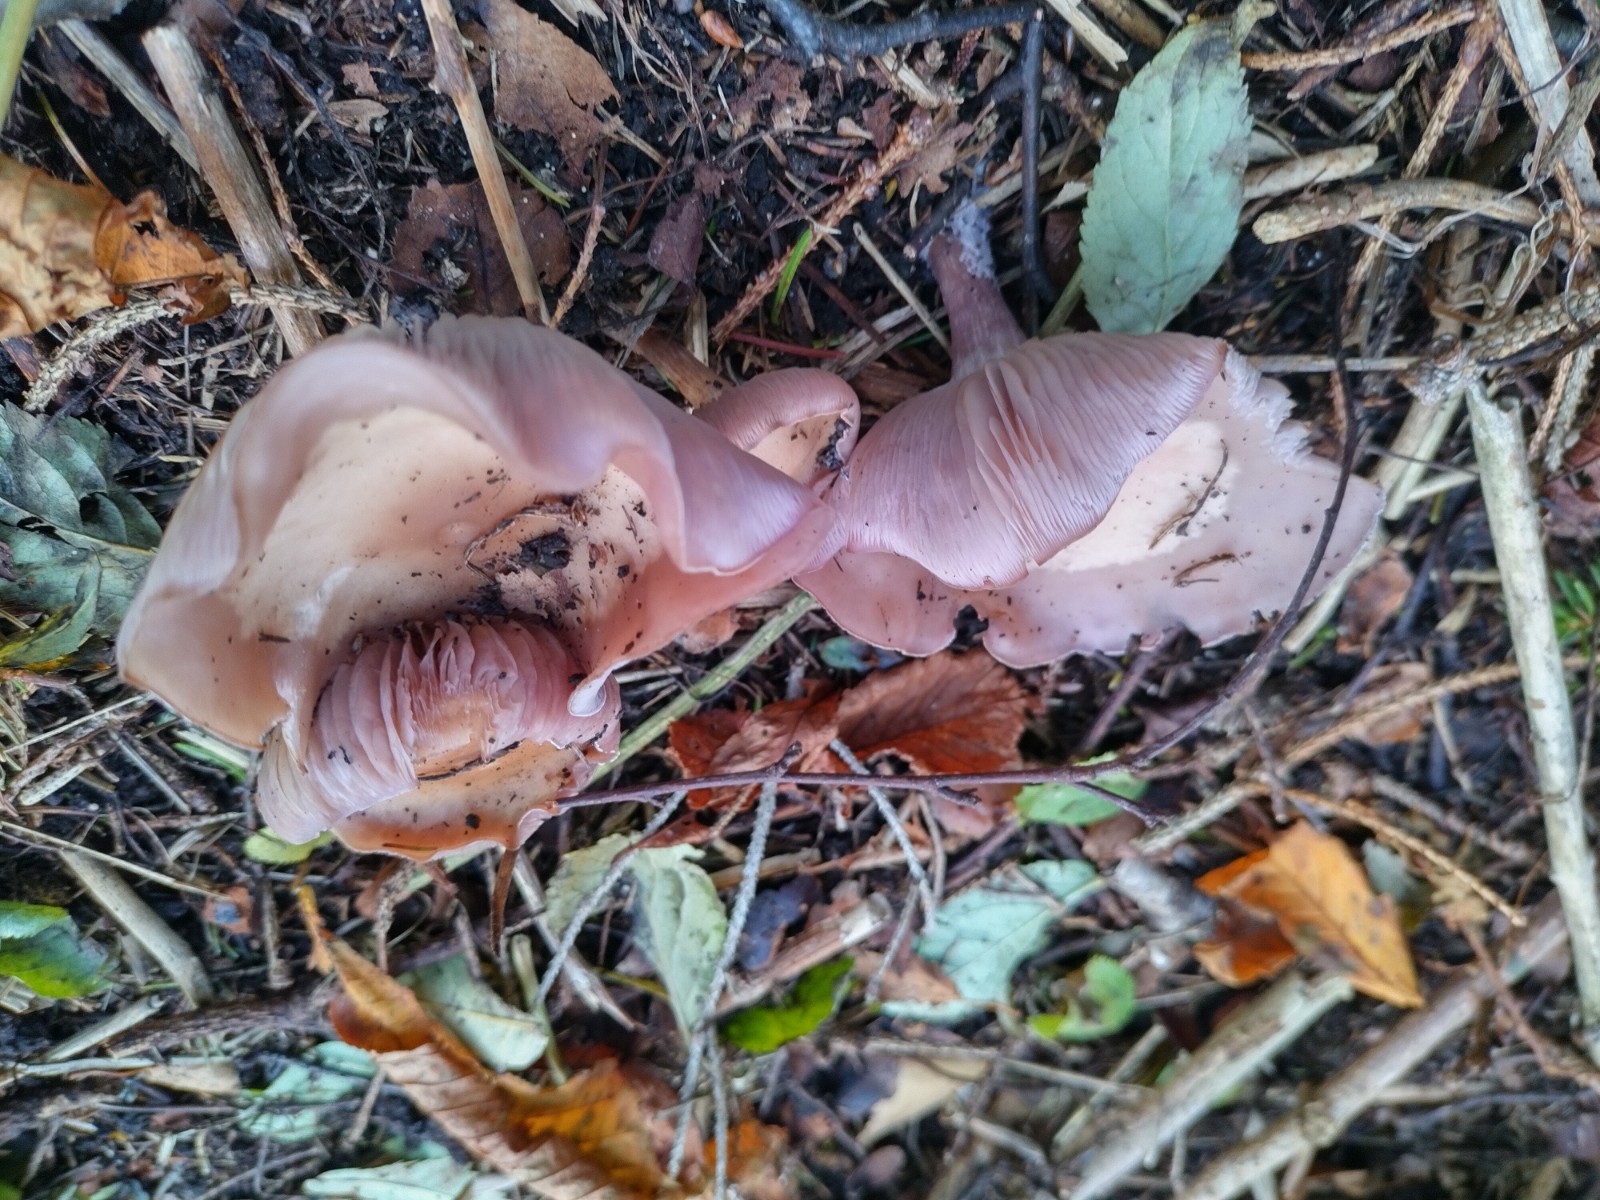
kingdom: Fungi
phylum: Basidiomycota
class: Agaricomycetes
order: Agaricales
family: Tricholomataceae
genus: Lepista
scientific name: Lepista lilacea
